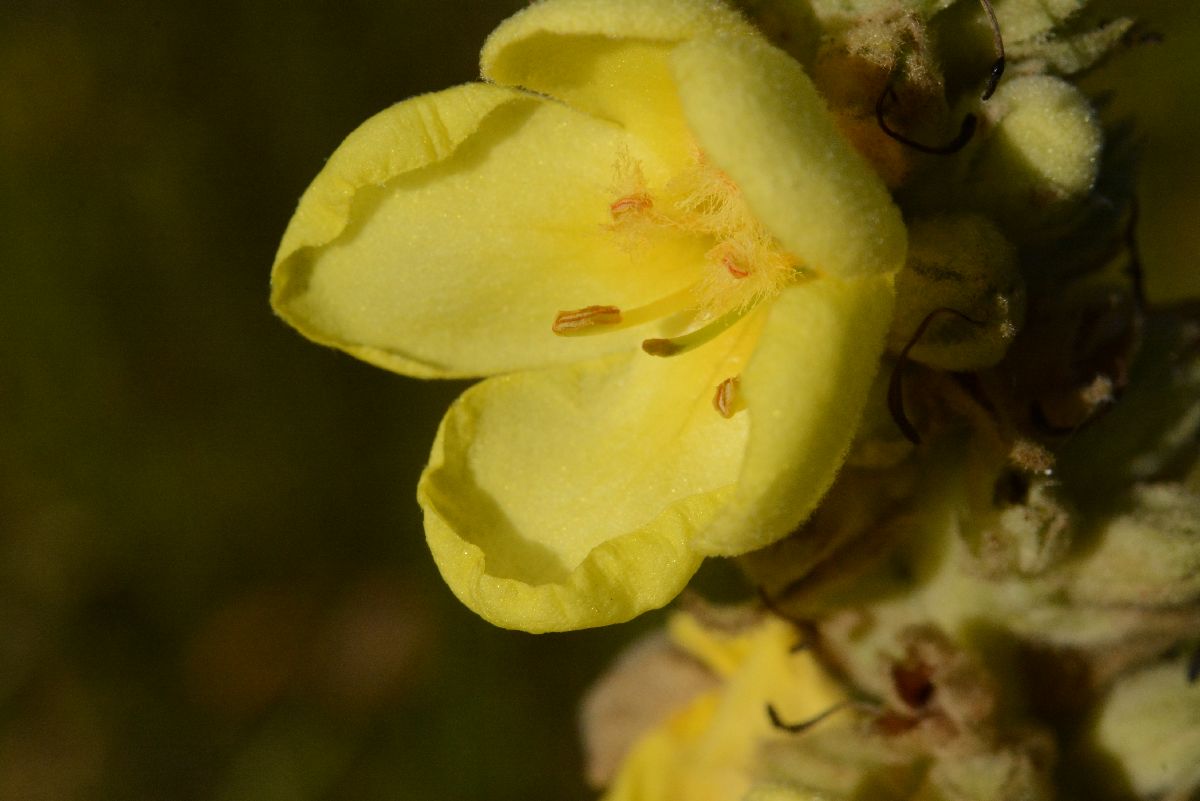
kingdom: Plantae
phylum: Tracheophyta
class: Magnoliopsida
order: Lamiales
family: Scrophulariaceae
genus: Verbascum
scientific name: Verbascum densiflorum
